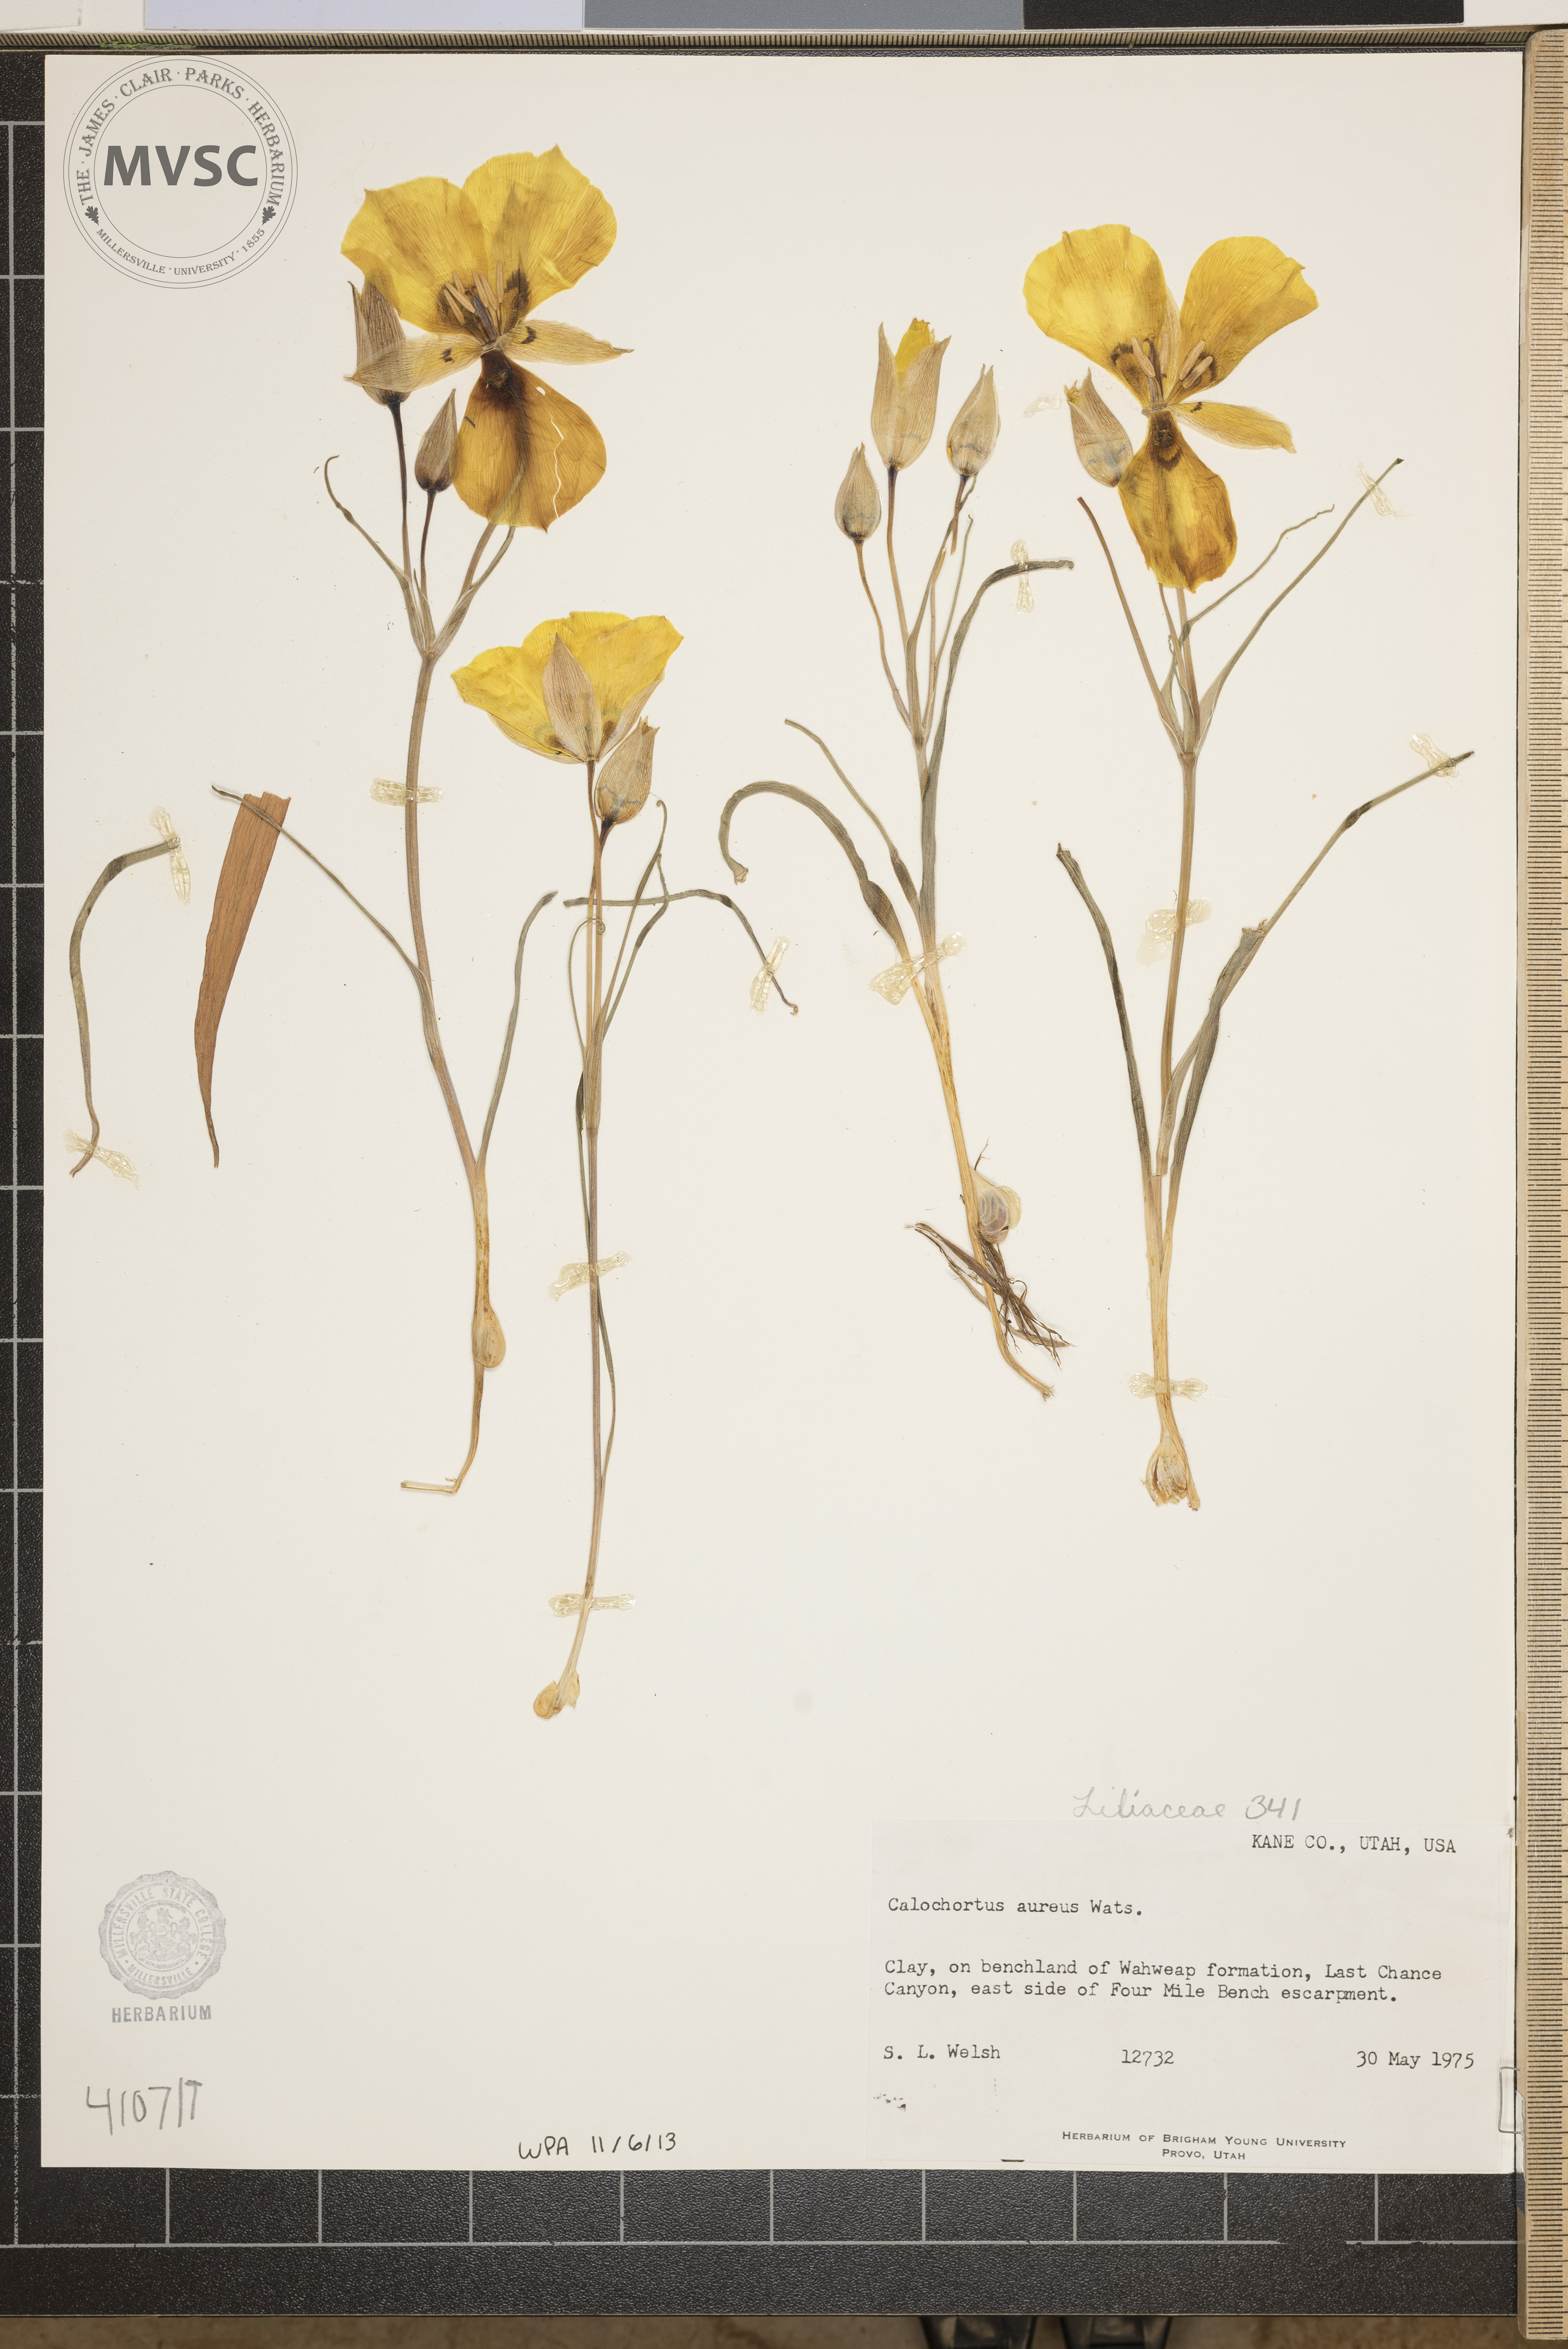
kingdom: Plantae
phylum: Tracheophyta
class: Liliopsida
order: Liliales
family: Liliaceae
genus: Calochortus
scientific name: Calochortus aureus
